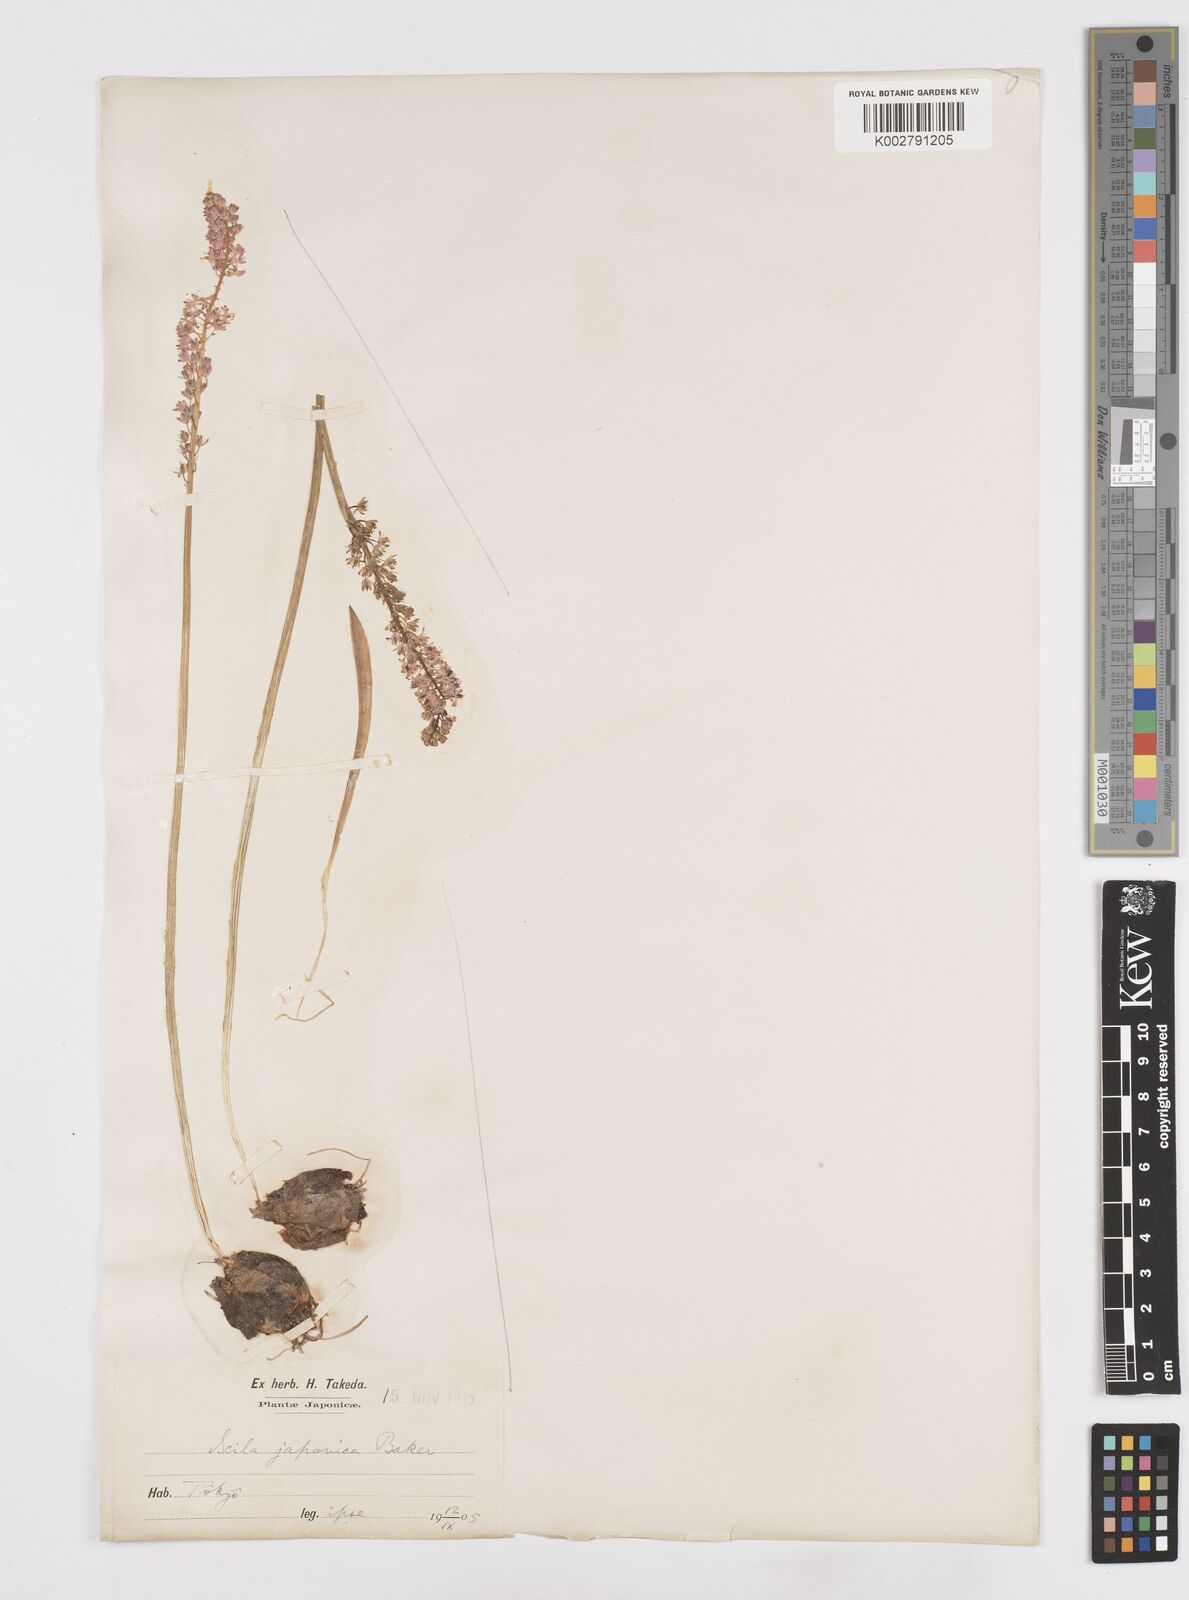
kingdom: Plantae
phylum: Tracheophyta
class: Liliopsida
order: Liliales
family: Melanthiaceae
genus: Helonias
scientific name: Helonias breviscapa
